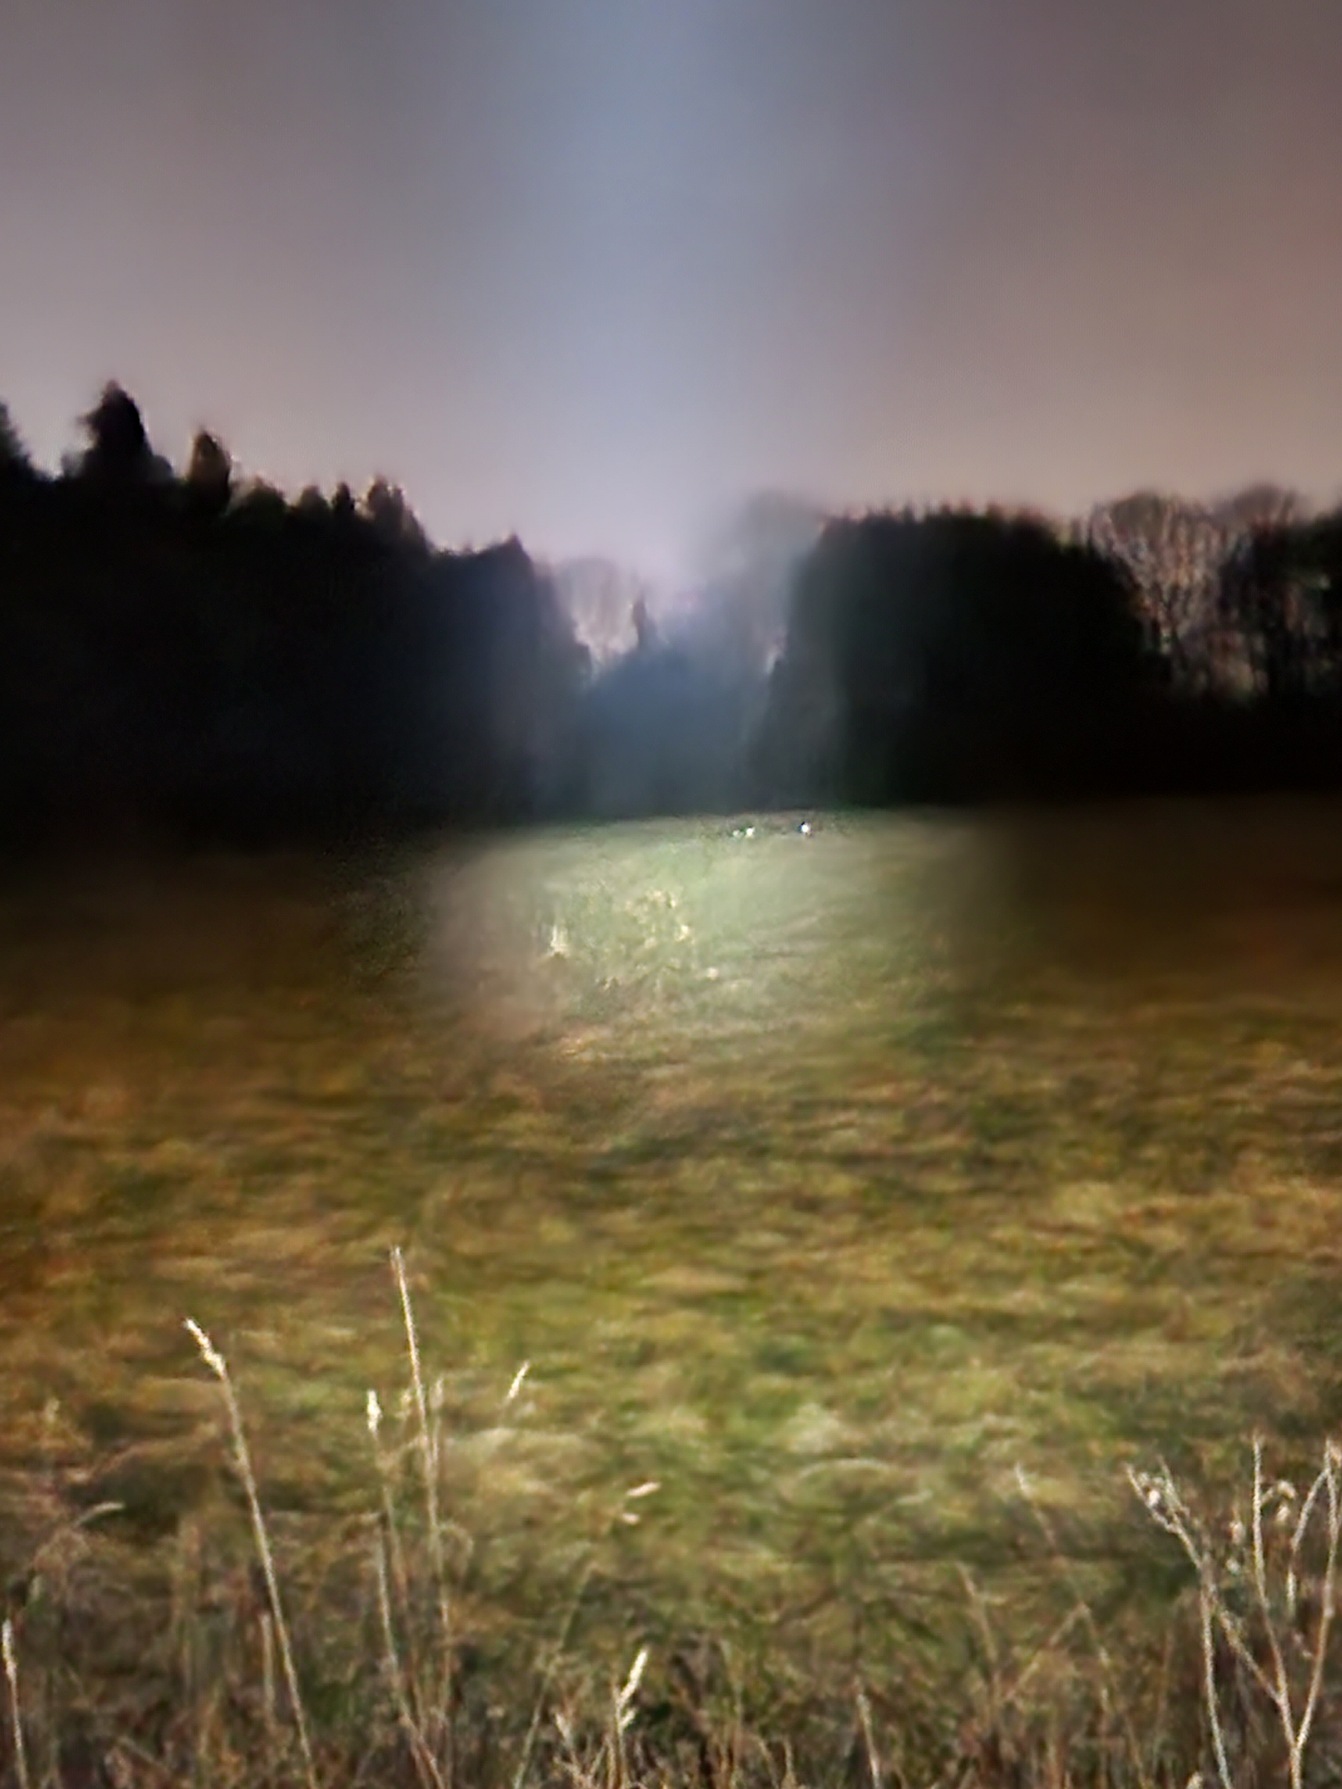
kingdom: Animalia
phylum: Chordata
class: Mammalia
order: Artiodactyla
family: Cervidae
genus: Capreolus
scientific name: Capreolus capreolus
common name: Rådyr
